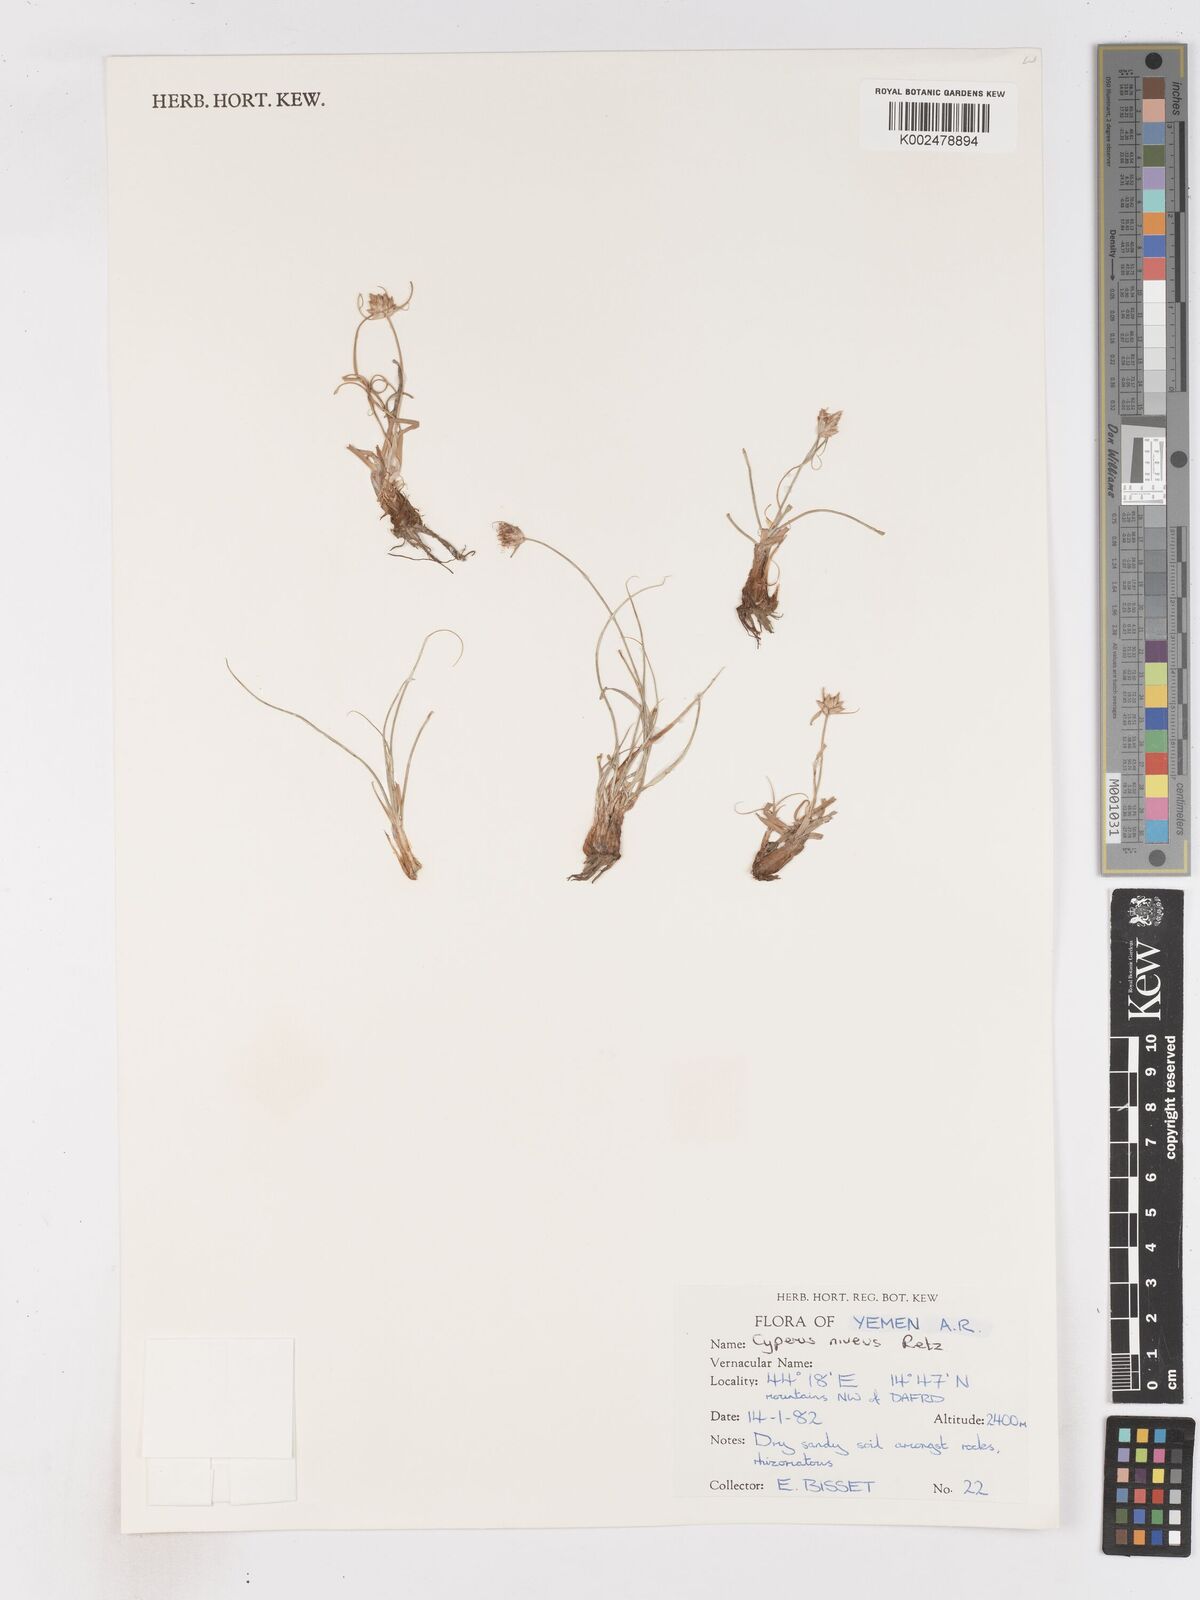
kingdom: Plantae
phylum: Tracheophyta
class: Liliopsida
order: Poales
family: Cyperaceae
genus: Cyperus
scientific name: Cyperus niveus
